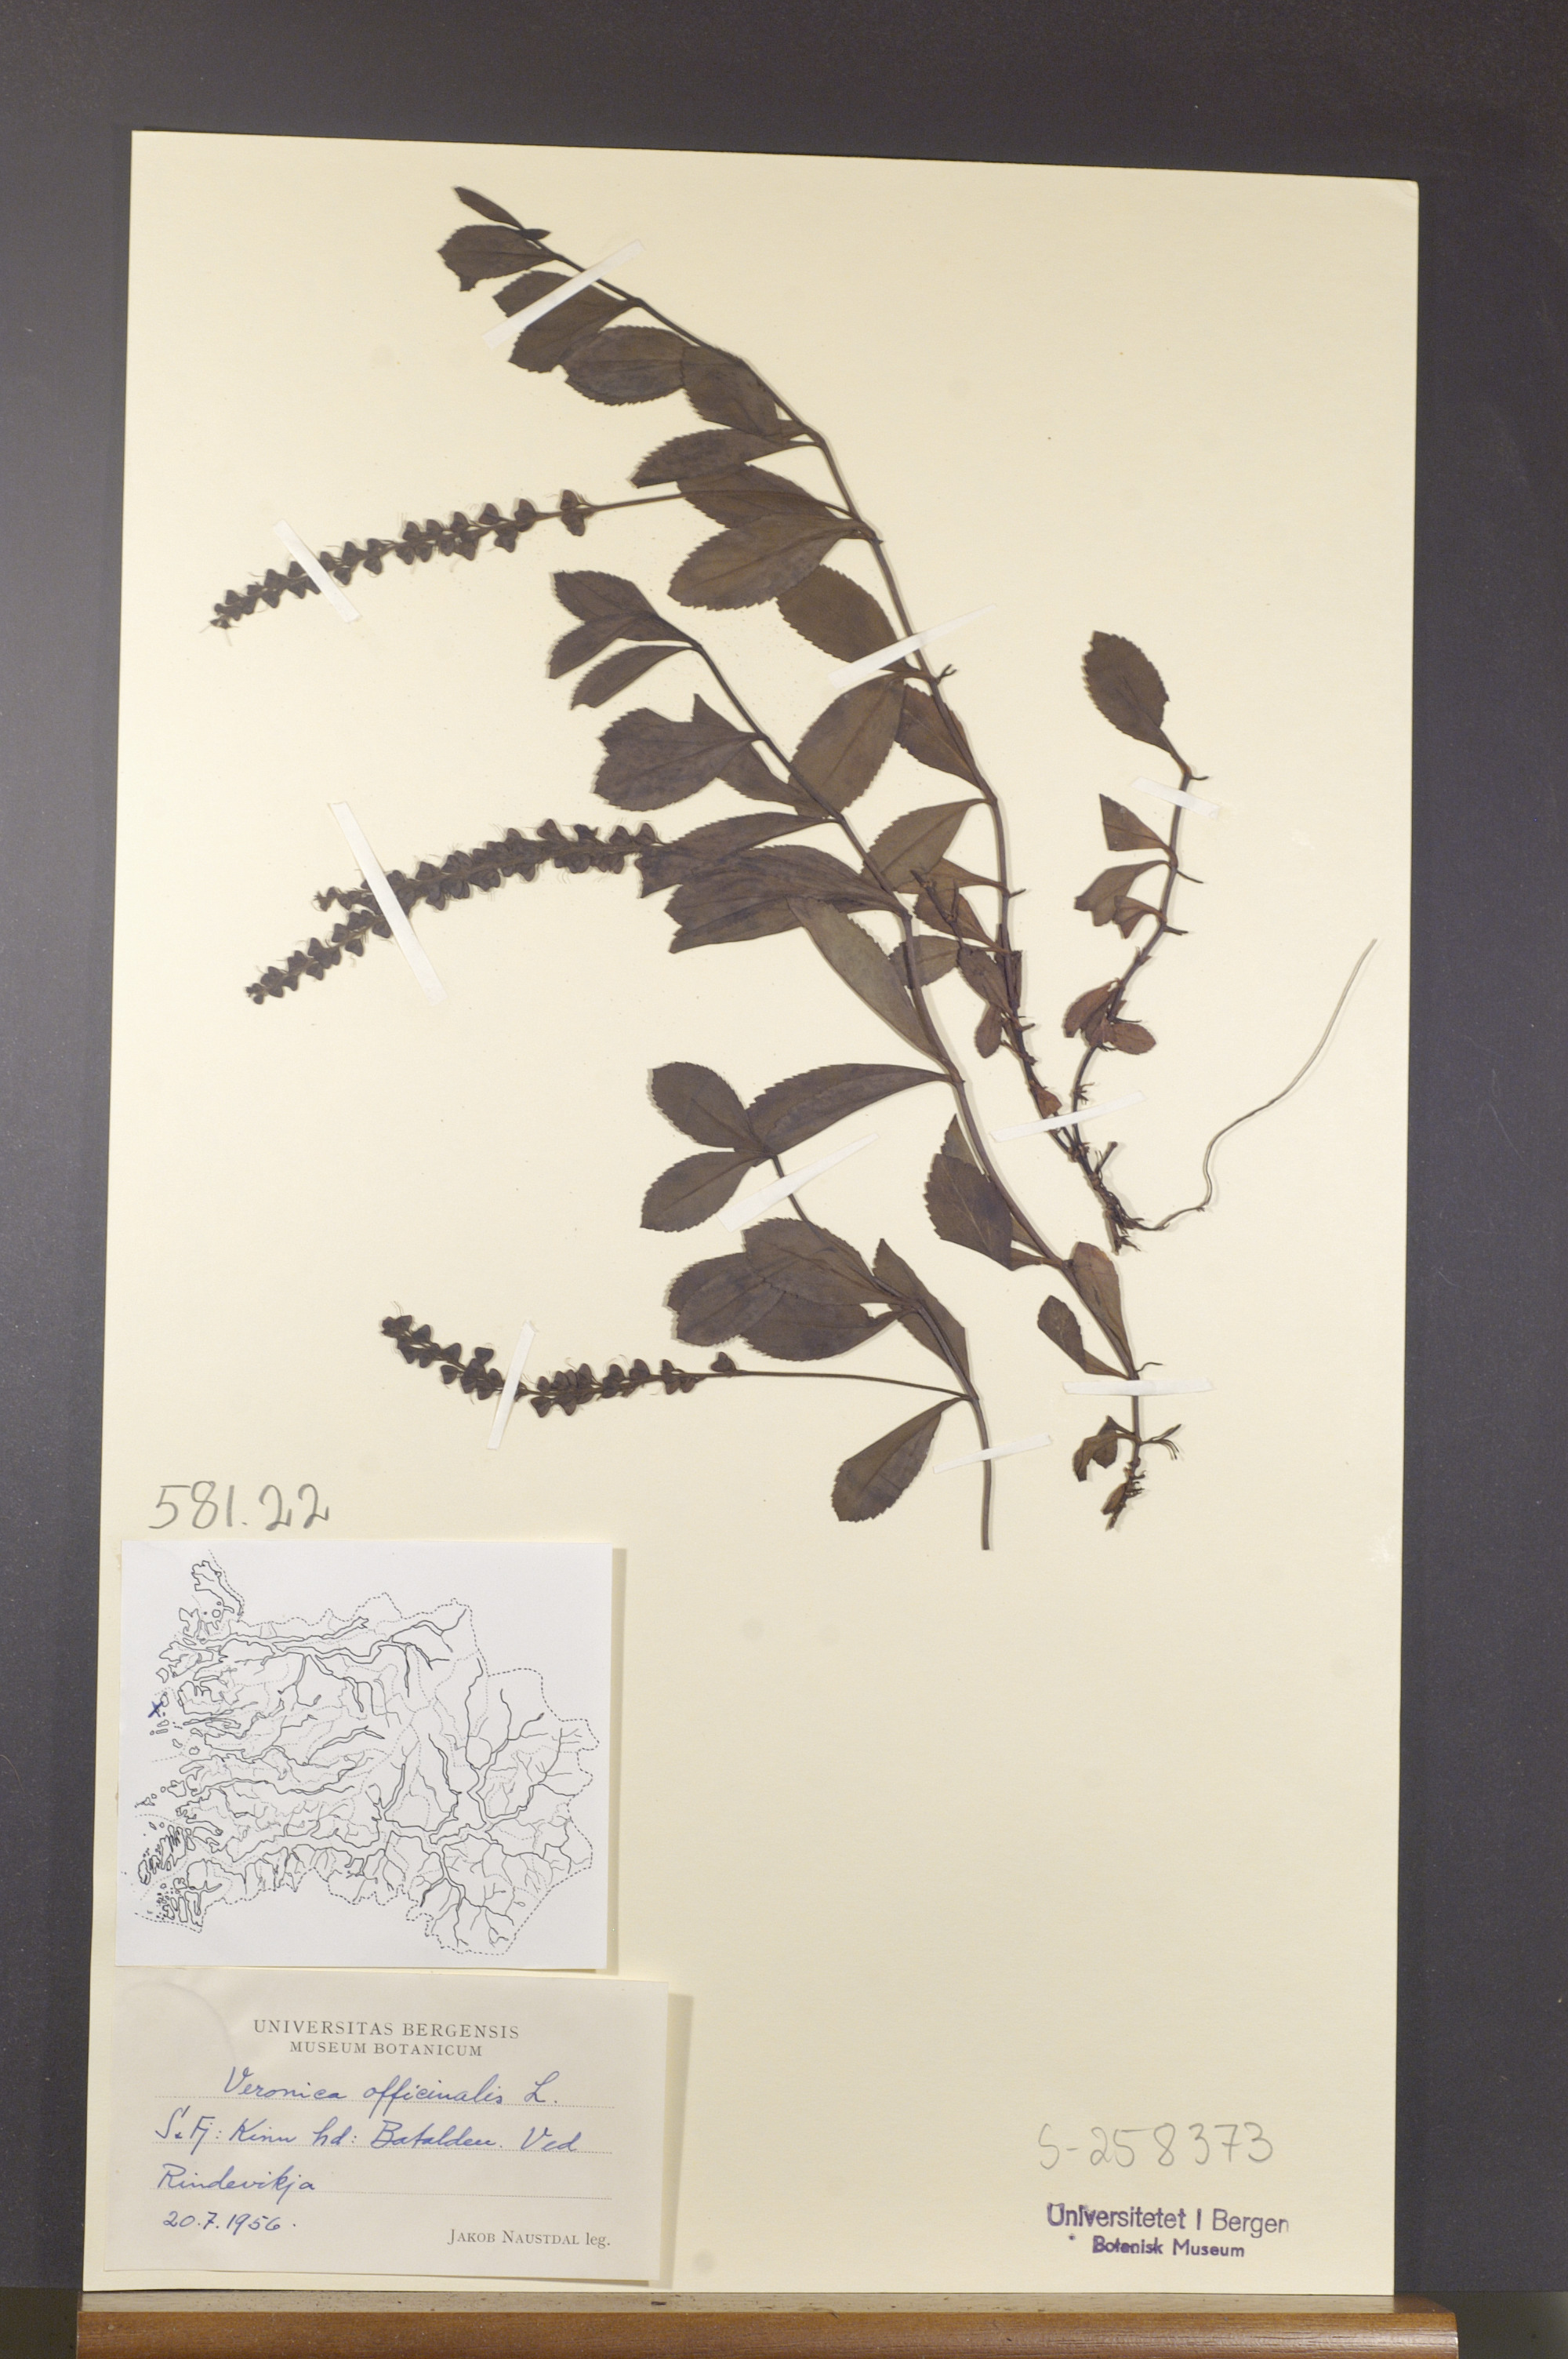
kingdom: Plantae
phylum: Tracheophyta
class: Magnoliopsida
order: Lamiales
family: Plantaginaceae
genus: Veronica
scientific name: Veronica officinalis
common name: Common speedwell
